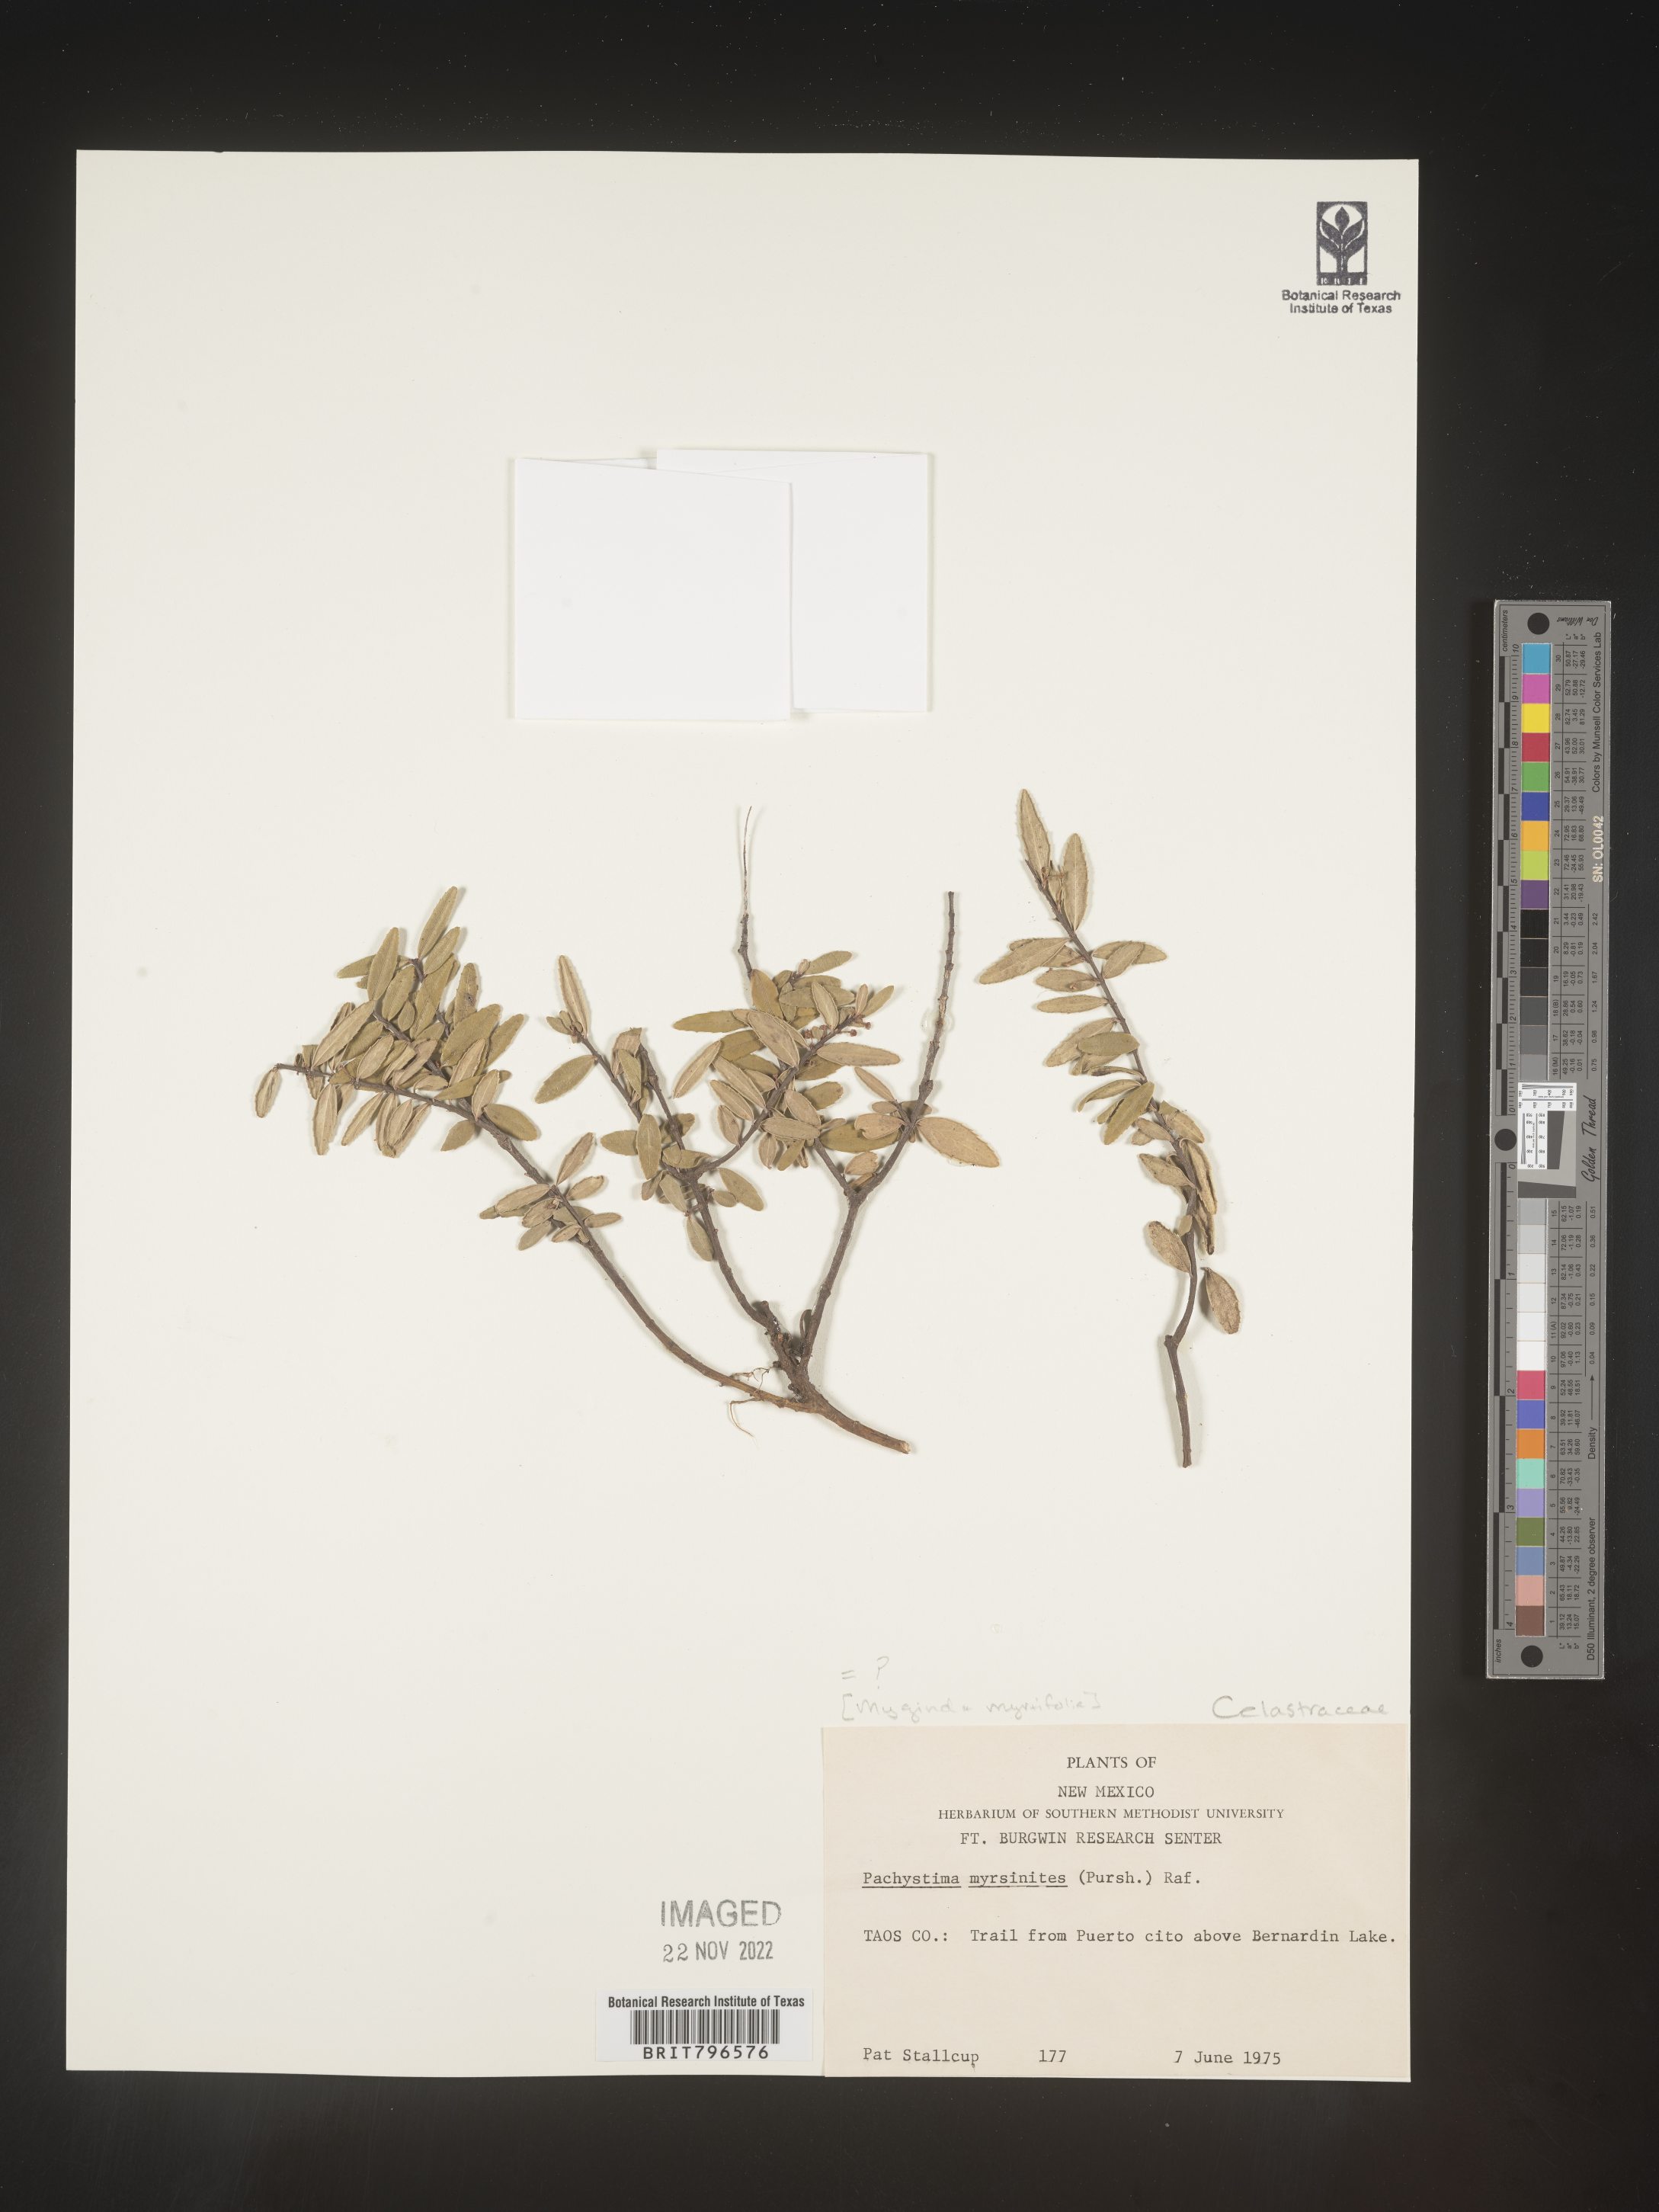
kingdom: Plantae
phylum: Tracheophyta
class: Magnoliopsida
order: Celastrales
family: Celastraceae
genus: Paxistima
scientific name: Paxistima myrsinites
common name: Mountain-lover
